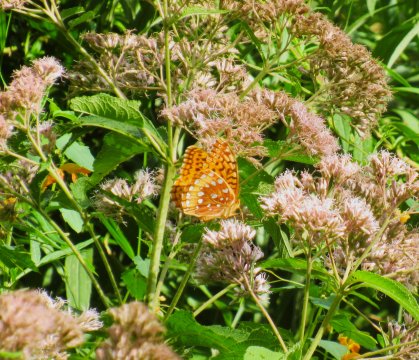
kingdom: Animalia
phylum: Arthropoda
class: Insecta
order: Lepidoptera
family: Nymphalidae
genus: Speyeria
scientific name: Speyeria cybele
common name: Great Spangled Fritillary
